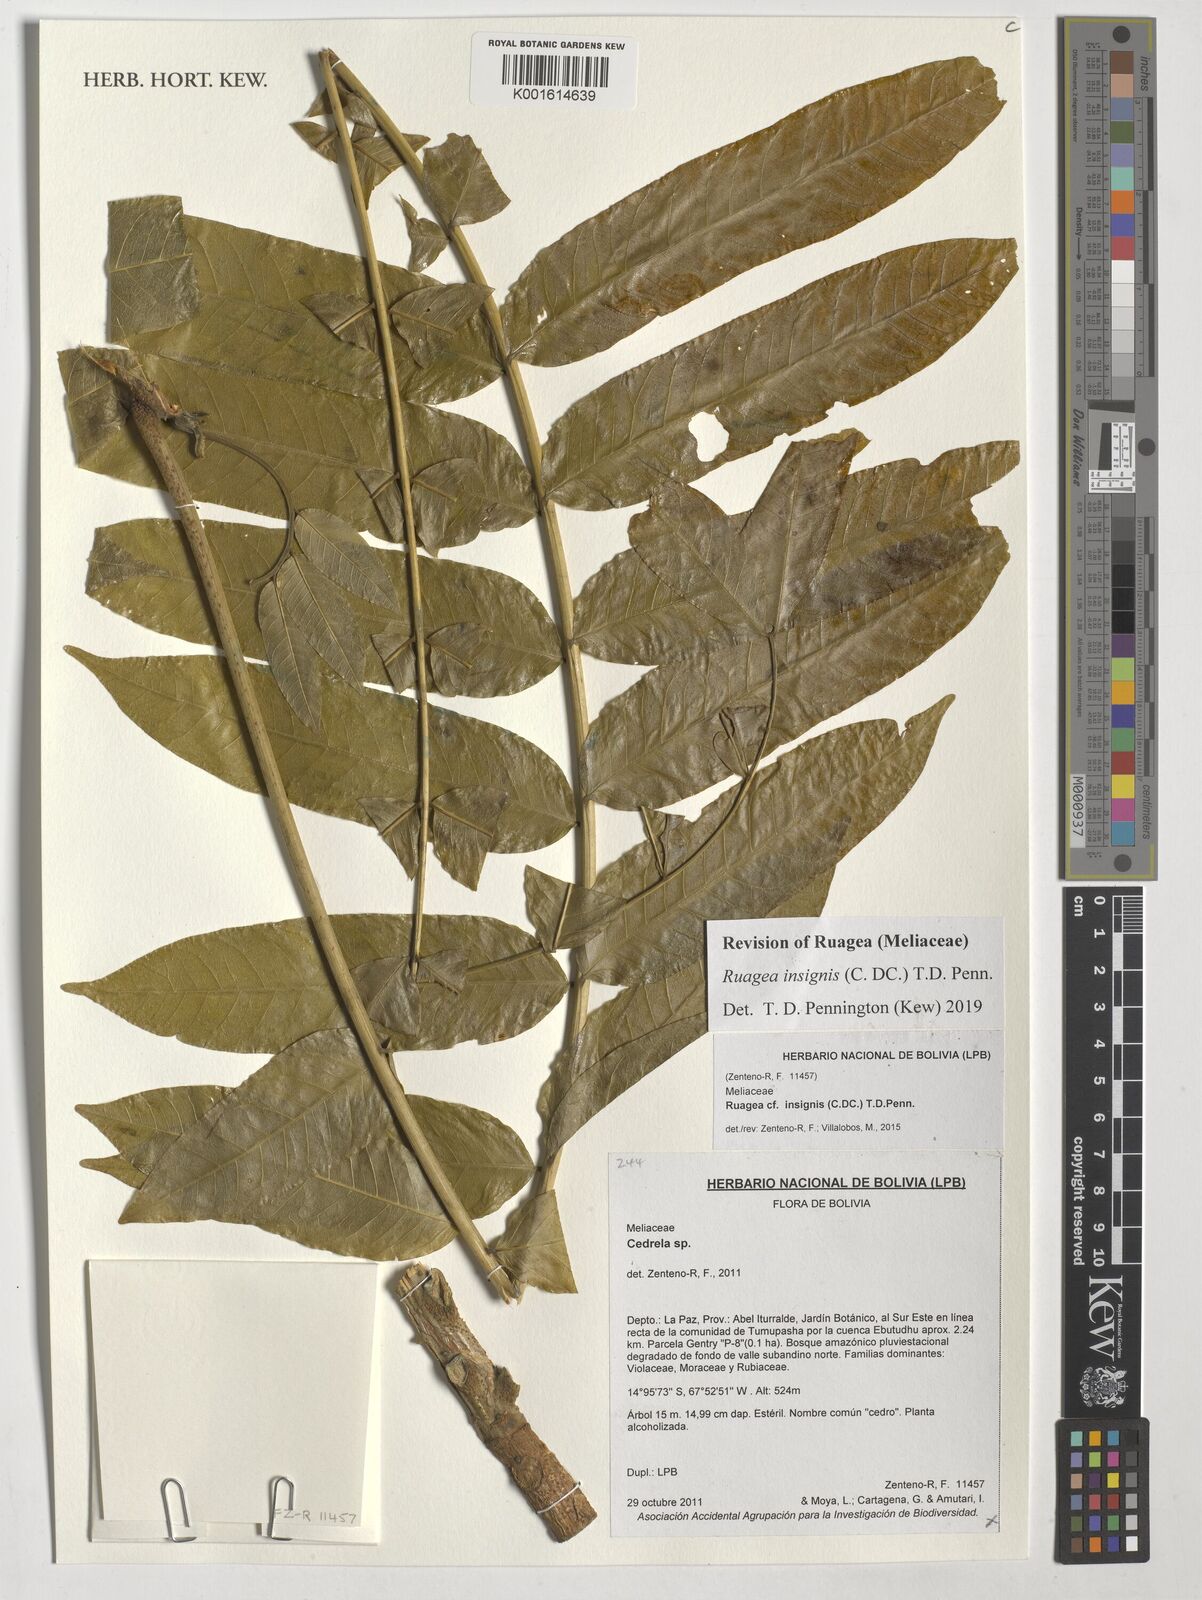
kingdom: Plantae
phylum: Tracheophyta
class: Magnoliopsida
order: Sapindales
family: Meliaceae
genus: Ruagea
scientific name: Ruagea insignis
